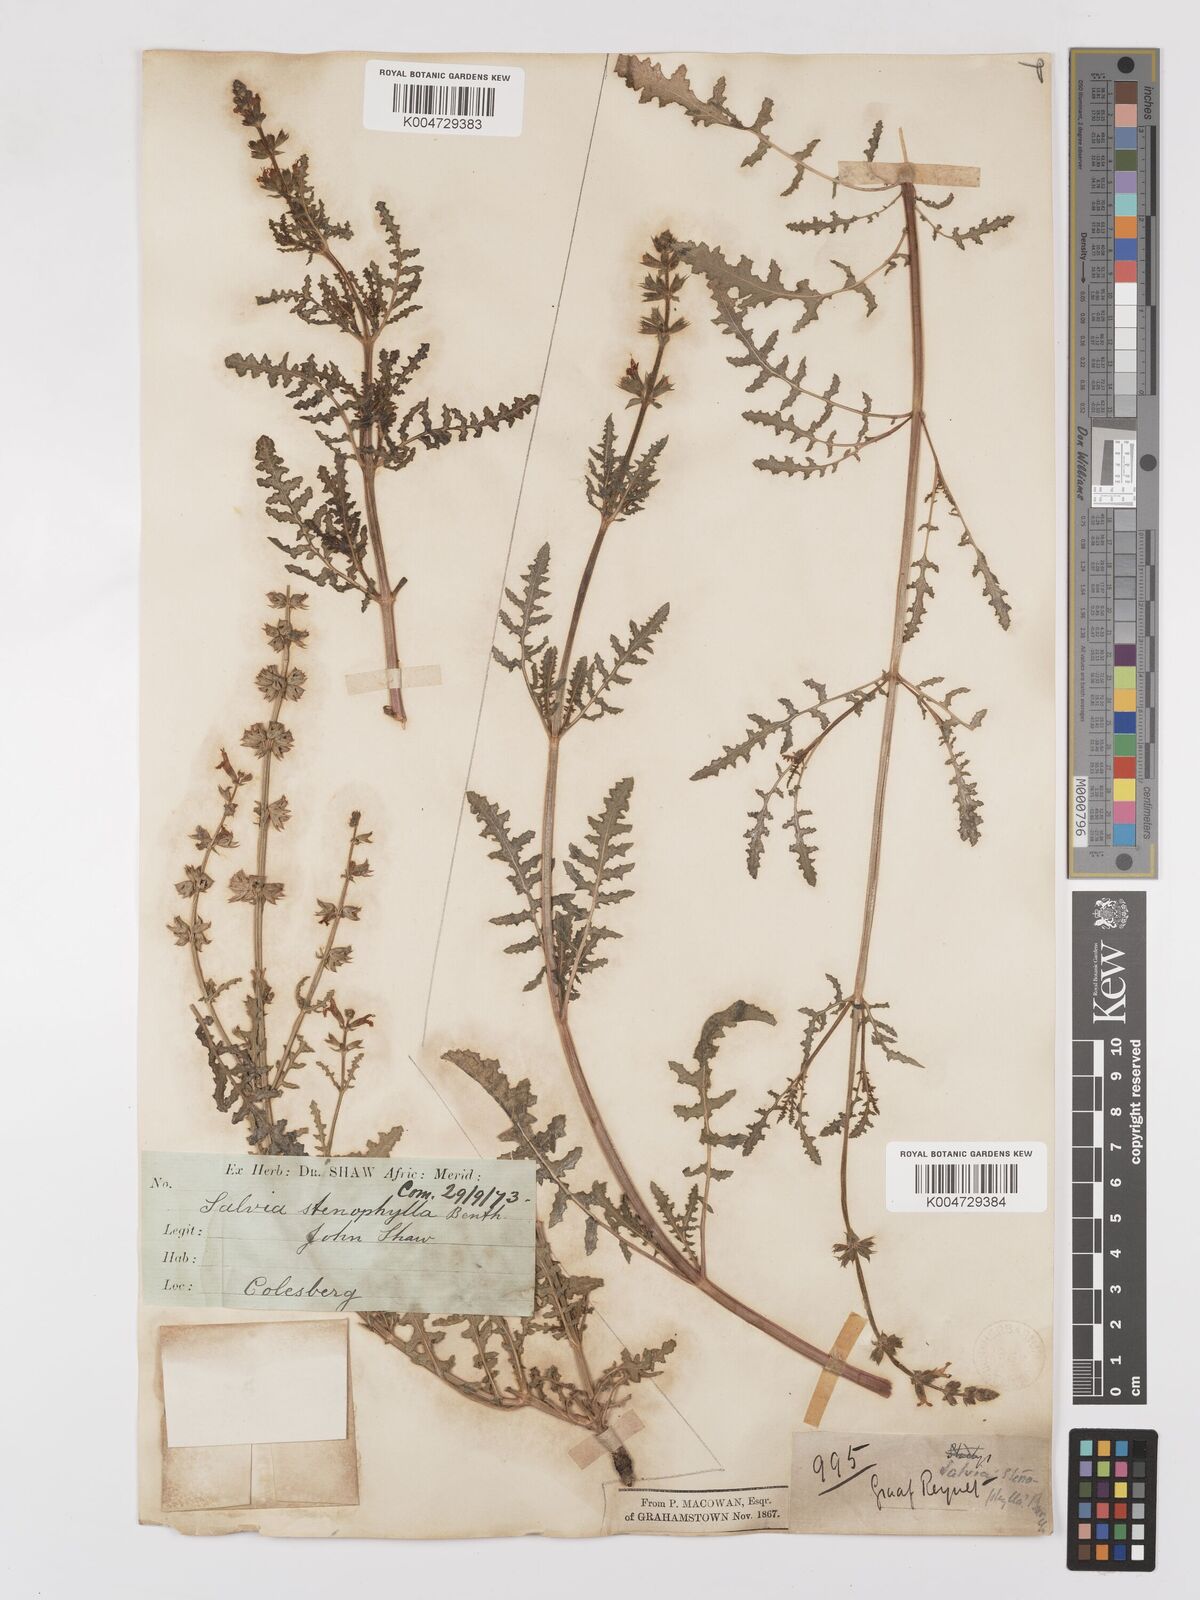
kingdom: Plantae
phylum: Tracheophyta
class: Magnoliopsida
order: Lamiales
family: Lamiaceae
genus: Salvia
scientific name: Salvia stenophylla
